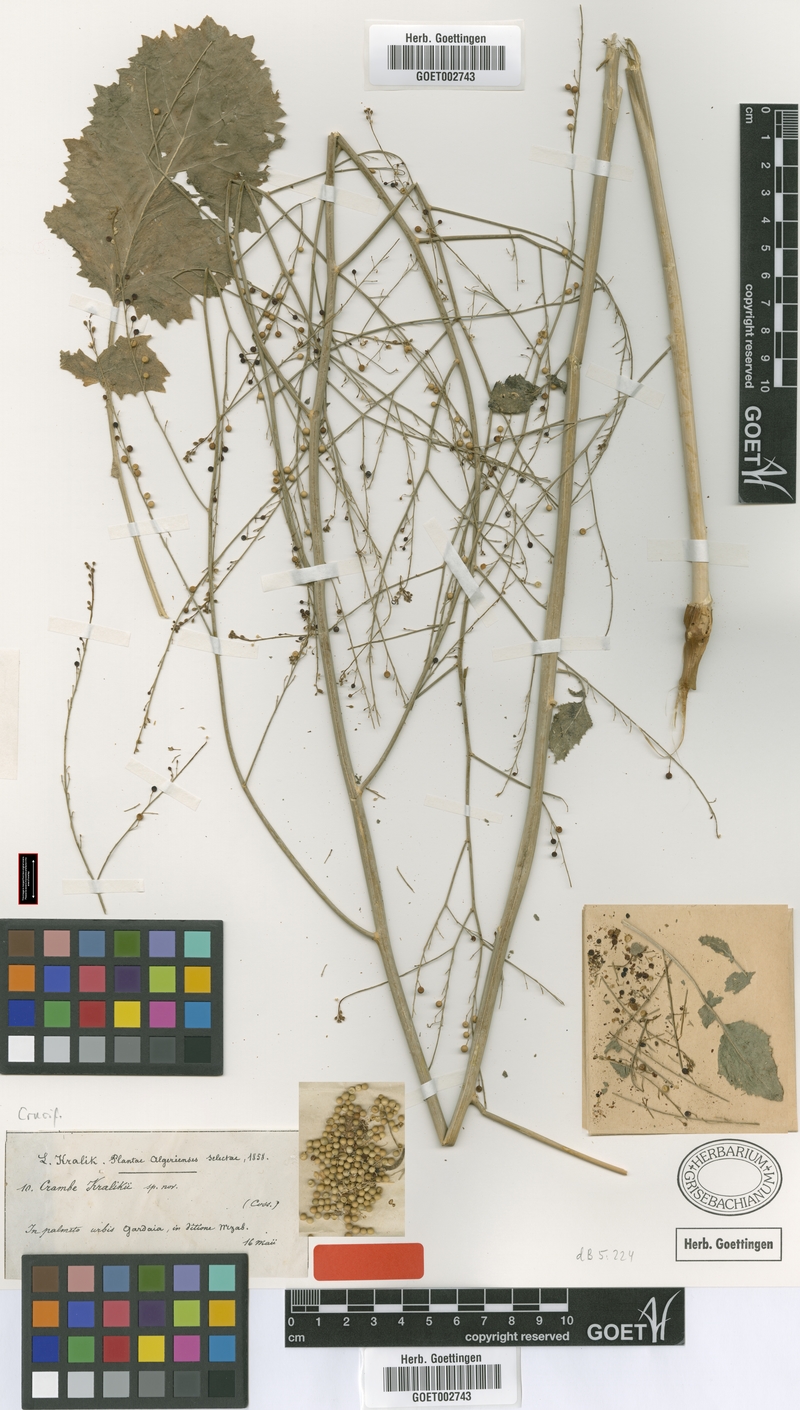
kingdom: Plantae
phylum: Tracheophyta
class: Magnoliopsida
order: Brassicales
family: Brassicaceae
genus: Crambe
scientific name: Crambe kralikii
